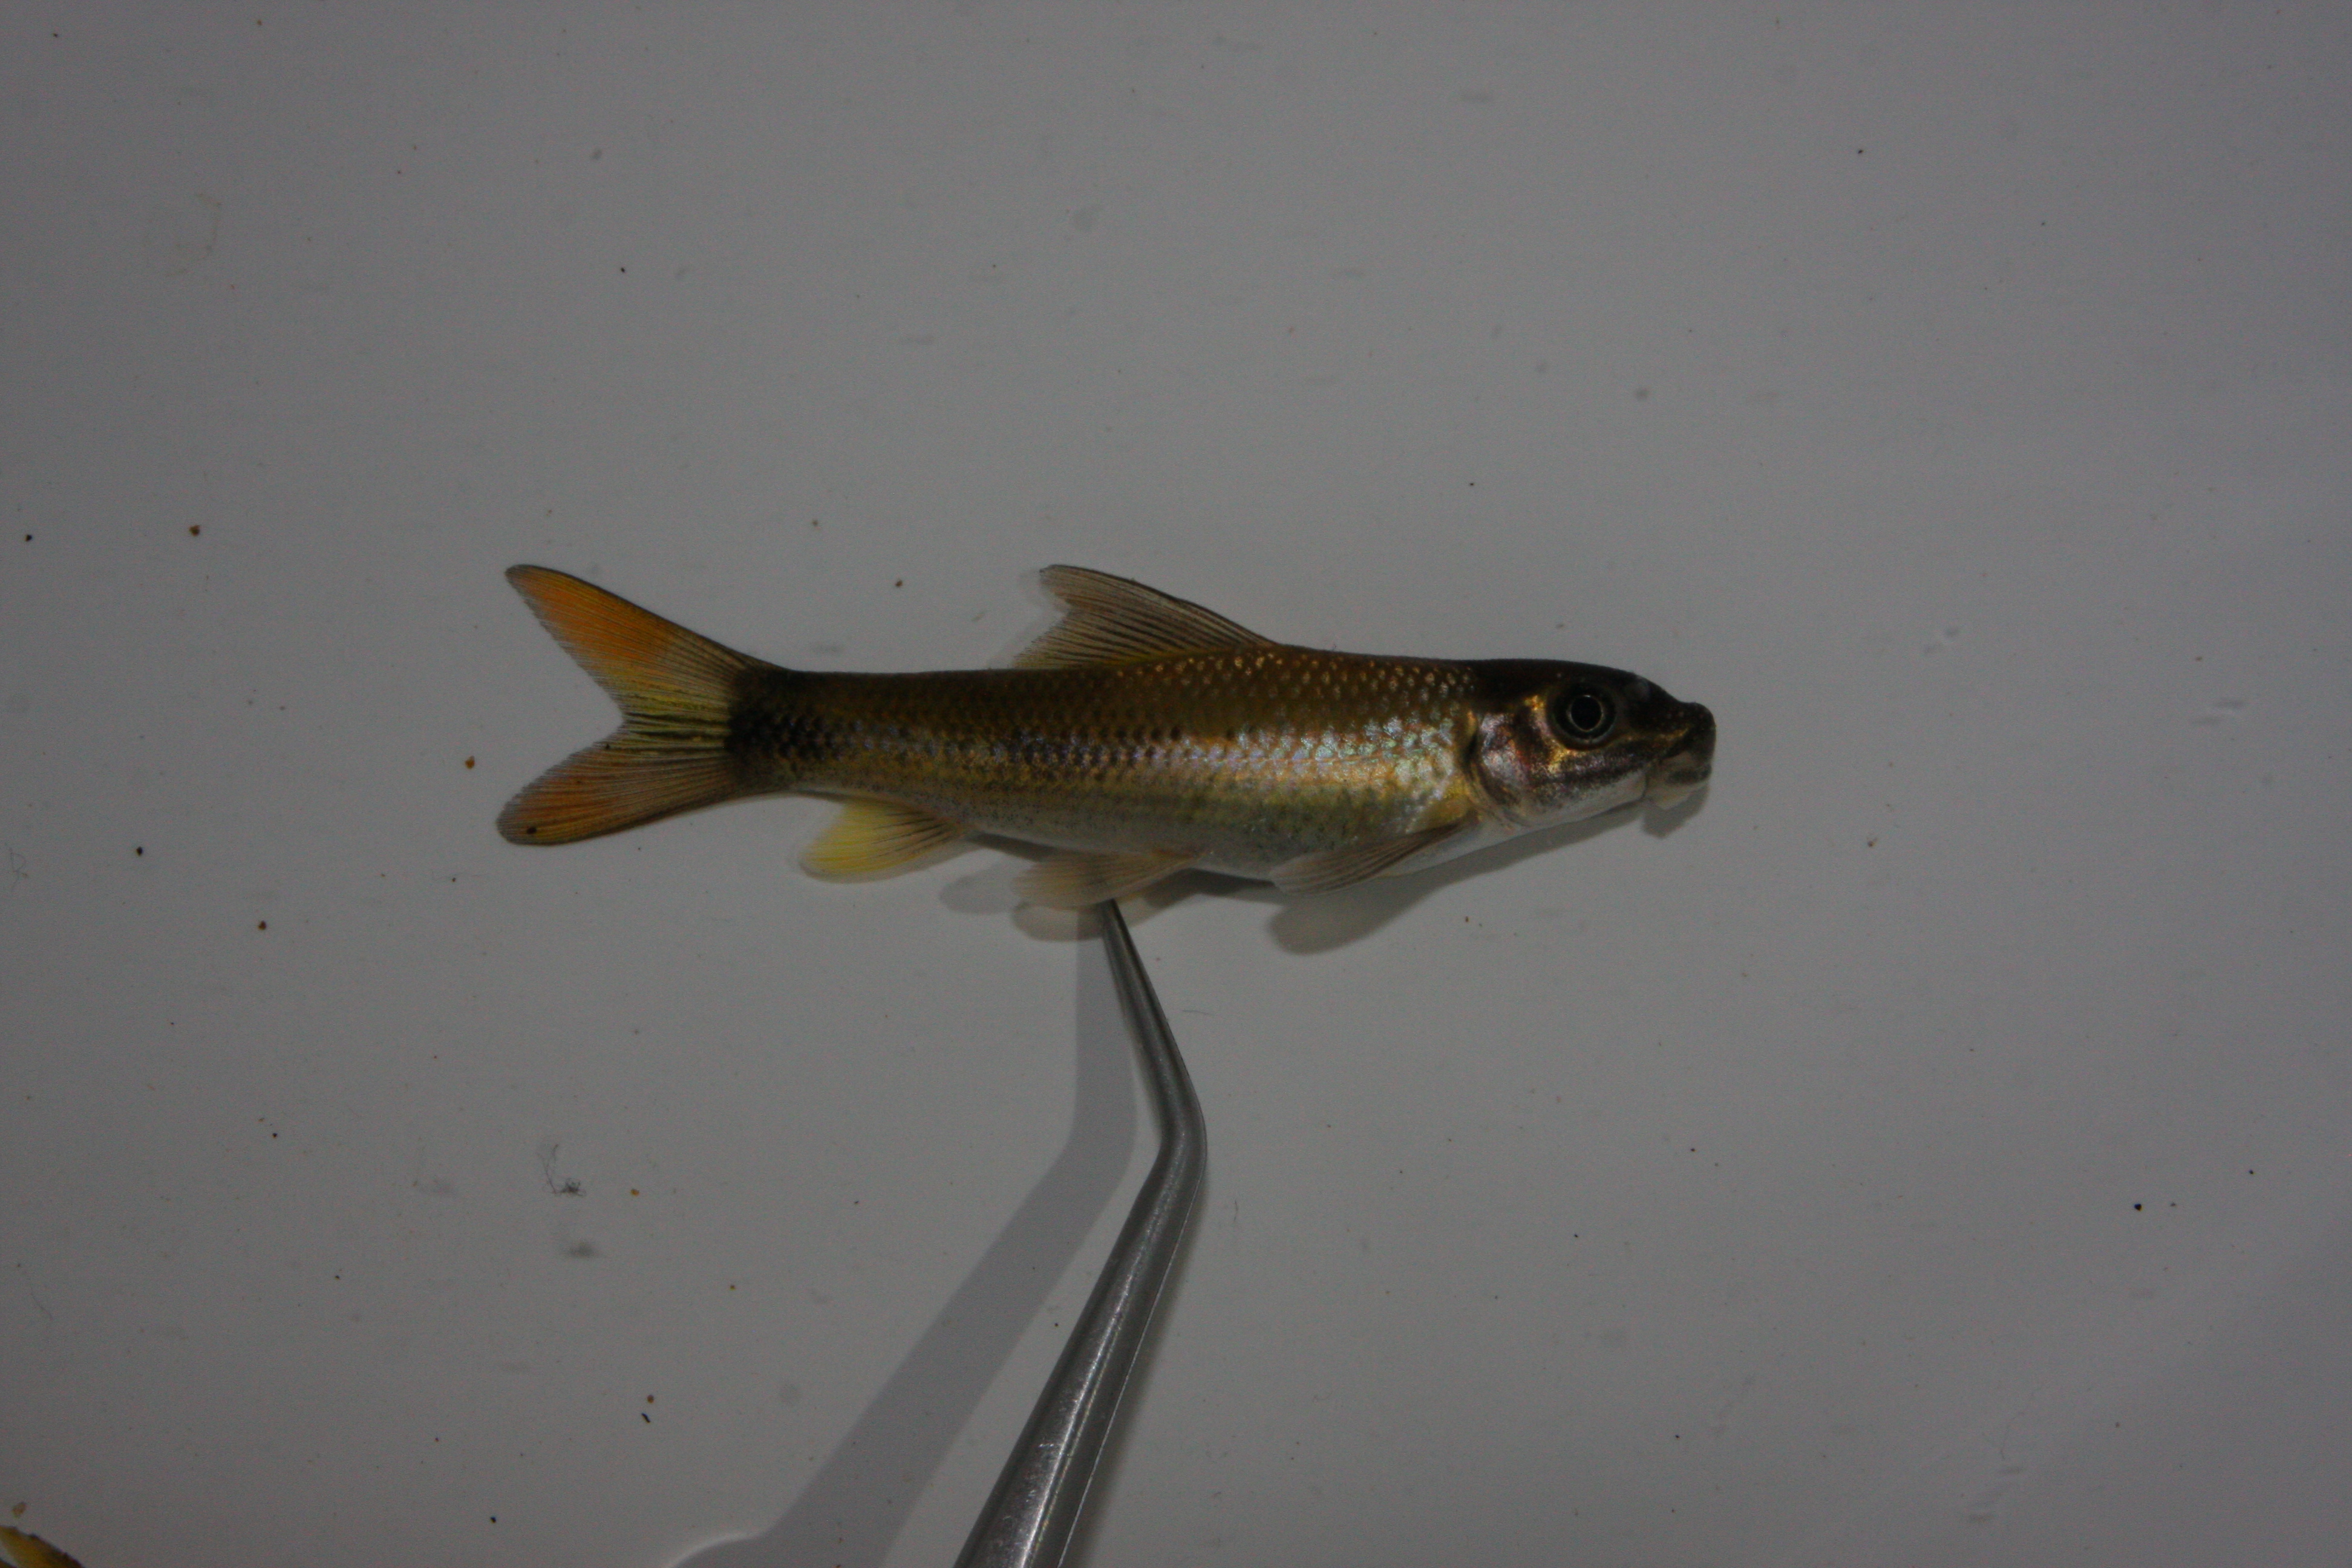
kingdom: Animalia
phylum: Chordata
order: Cypriniformes
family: Cyprinidae
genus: Labeo
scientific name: Labeo molybdinus
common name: Leaden labeo
